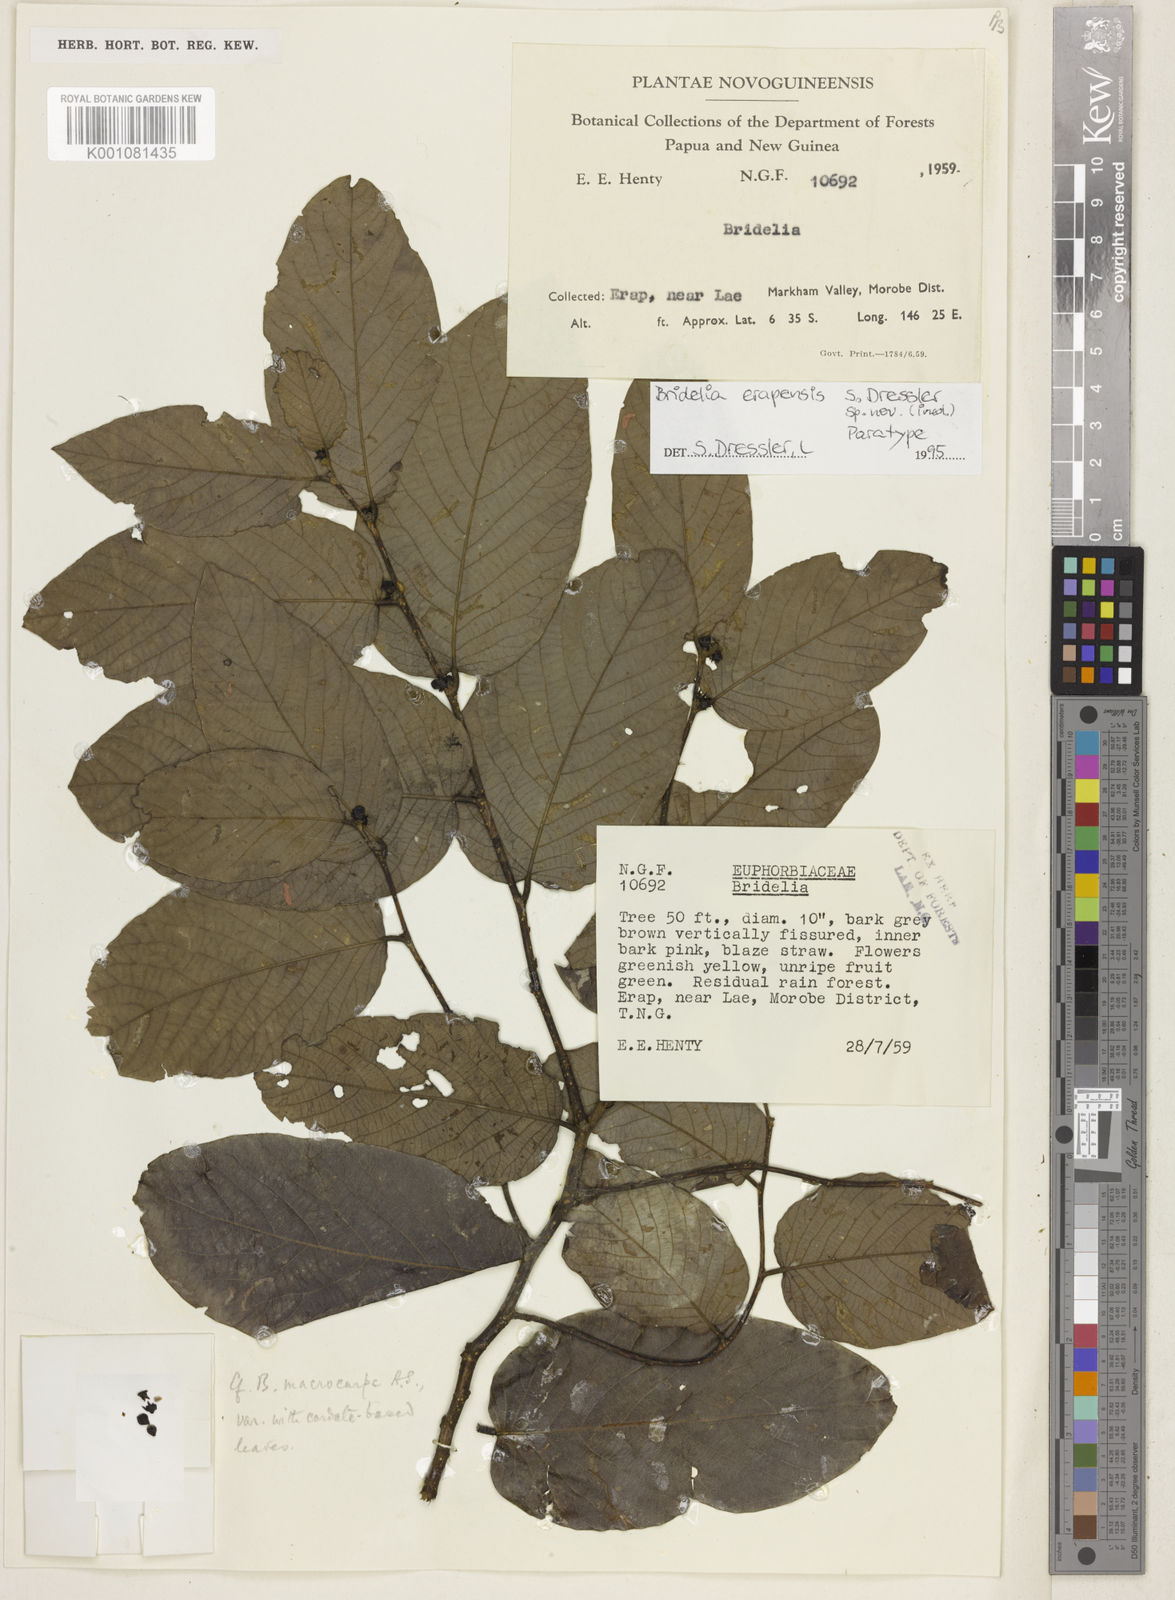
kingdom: Plantae
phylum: Tracheophyta
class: Magnoliopsida
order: Malpighiales
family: Phyllanthaceae
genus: Bridelia
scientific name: Bridelia erapensis
